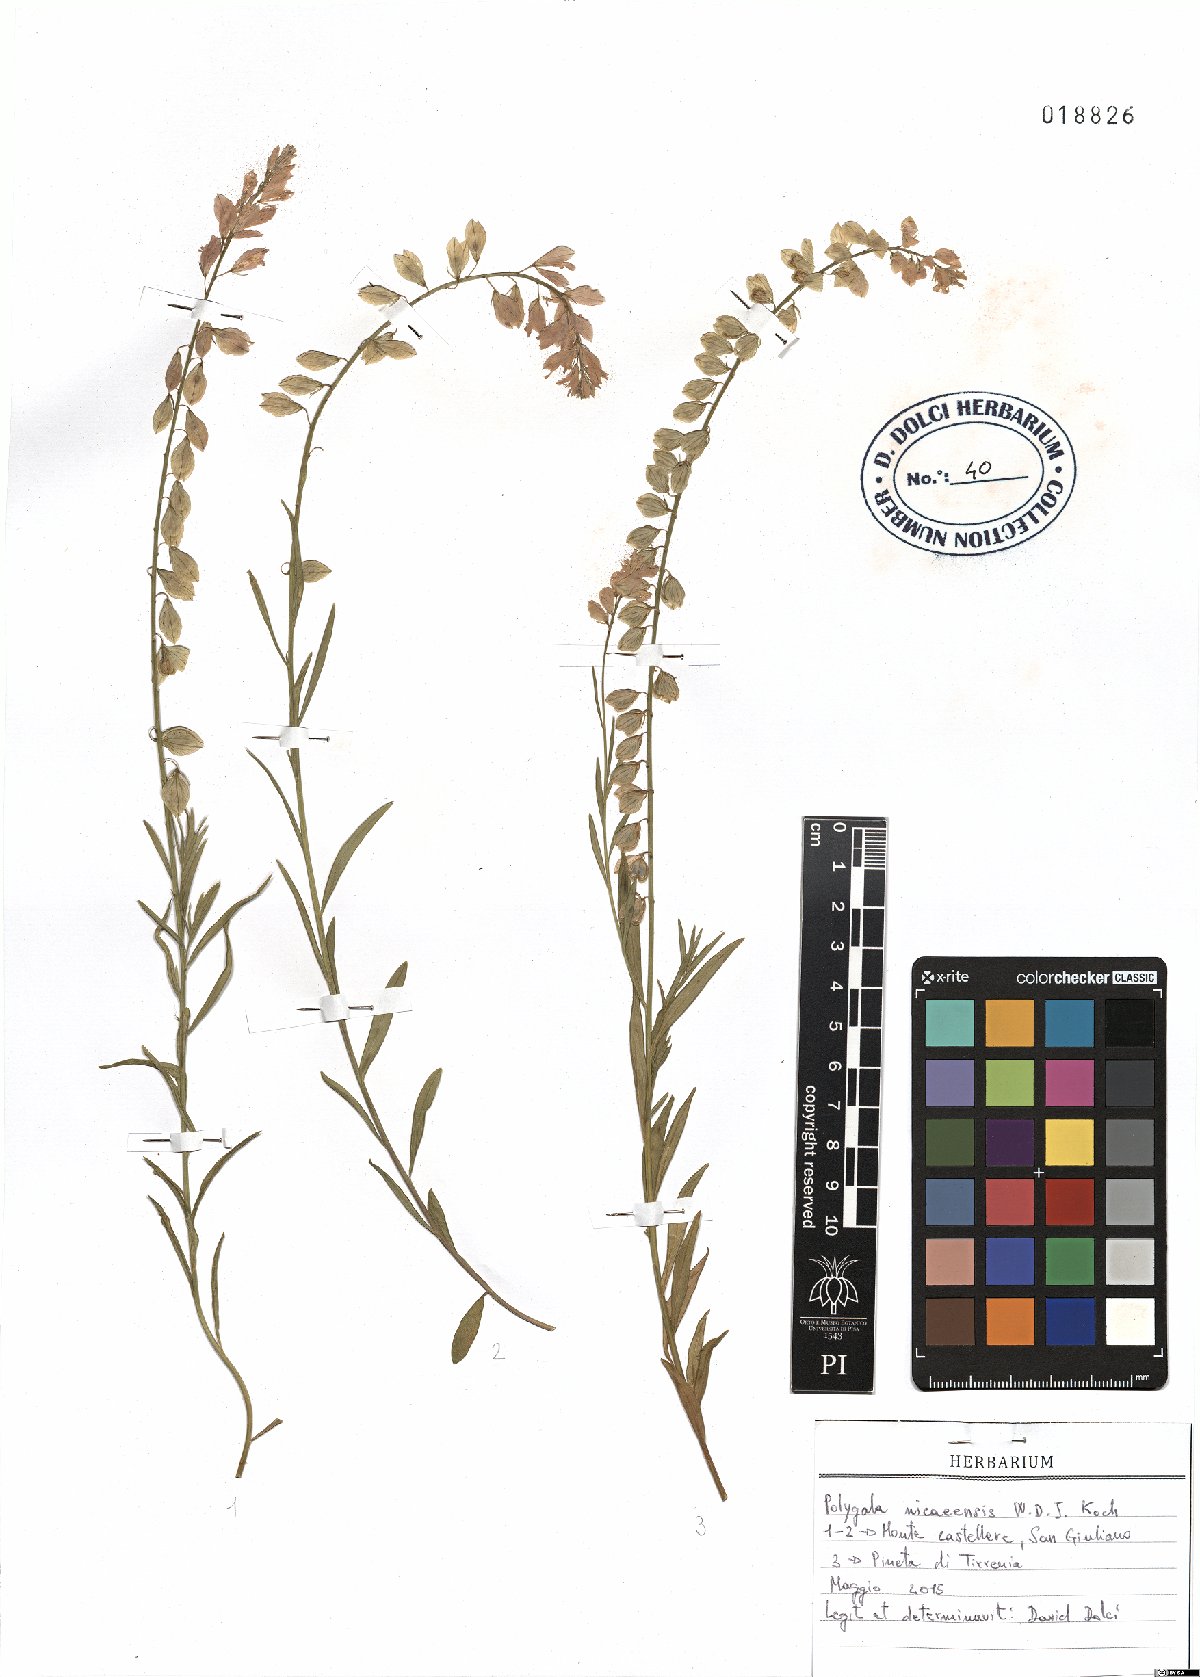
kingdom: Plantae
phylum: Tracheophyta
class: Magnoliopsida
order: Fabales
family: Polygalaceae
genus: Polygala
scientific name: Polygala nicaeensis
